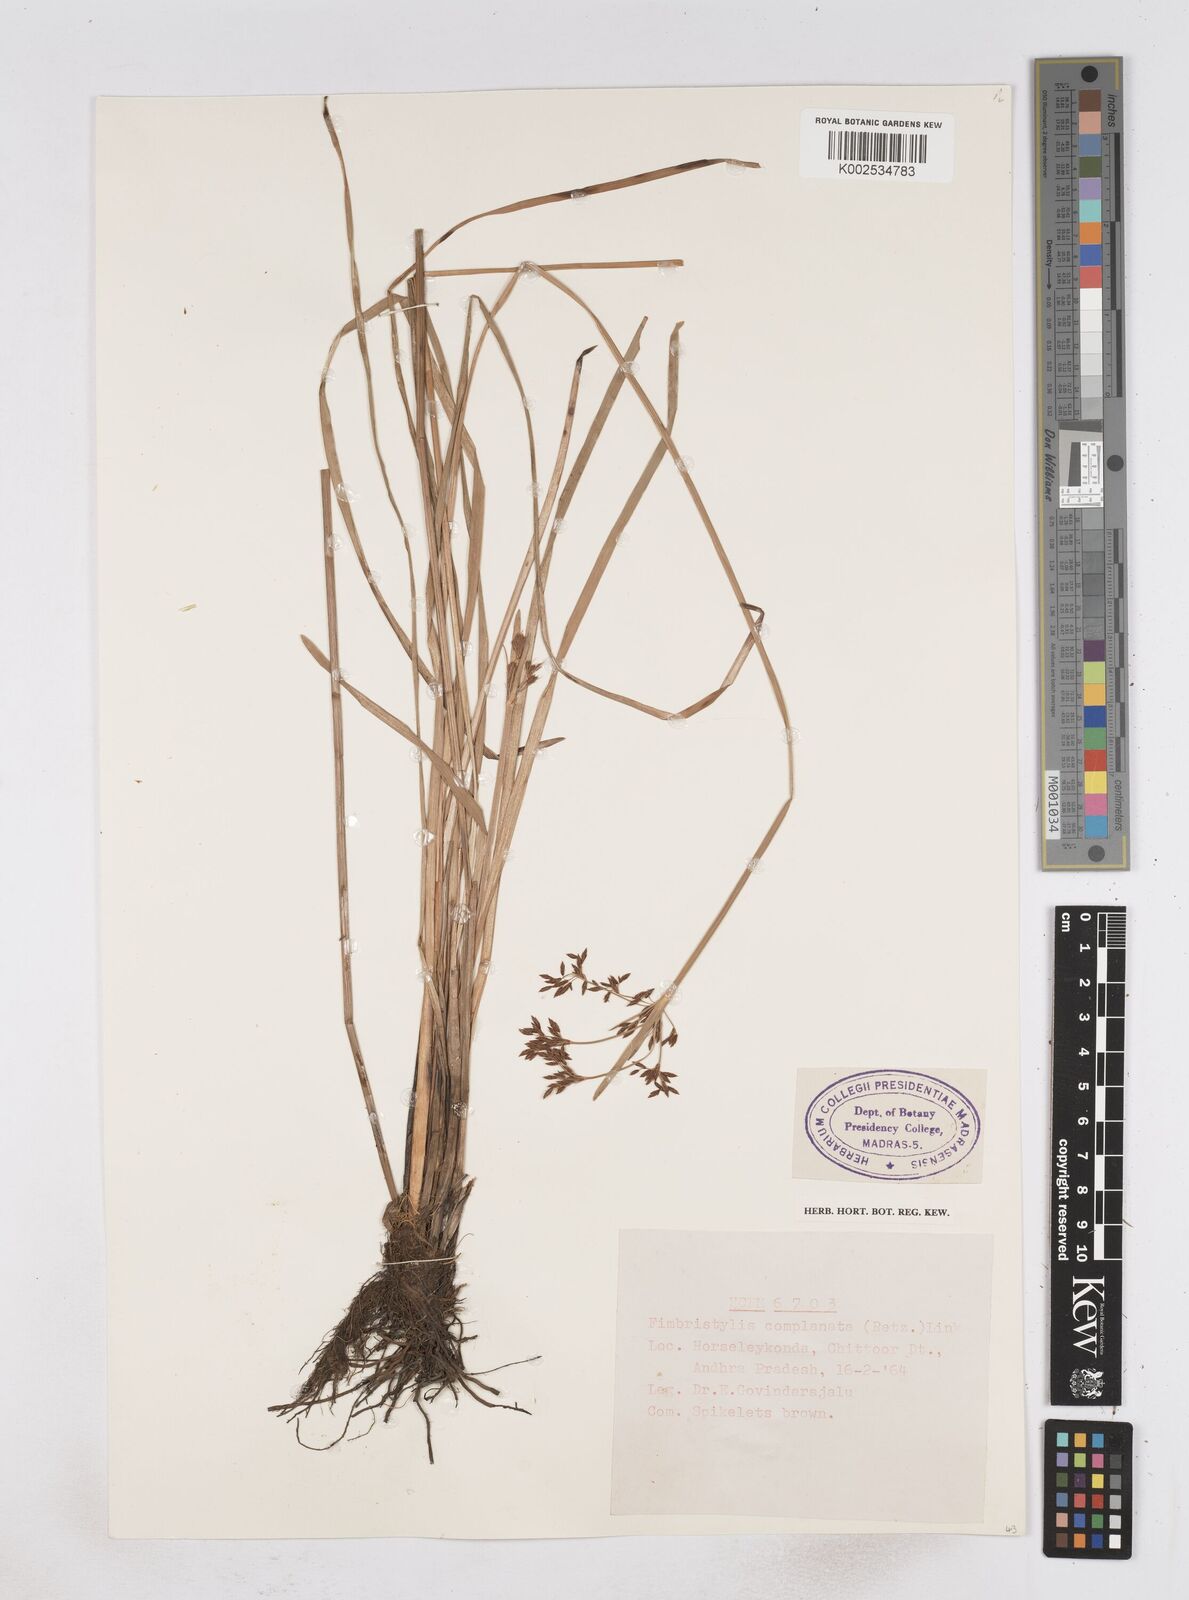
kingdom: Plantae
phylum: Tracheophyta
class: Liliopsida
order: Poales
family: Cyperaceae
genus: Fimbristylis
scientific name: Fimbristylis complanata
